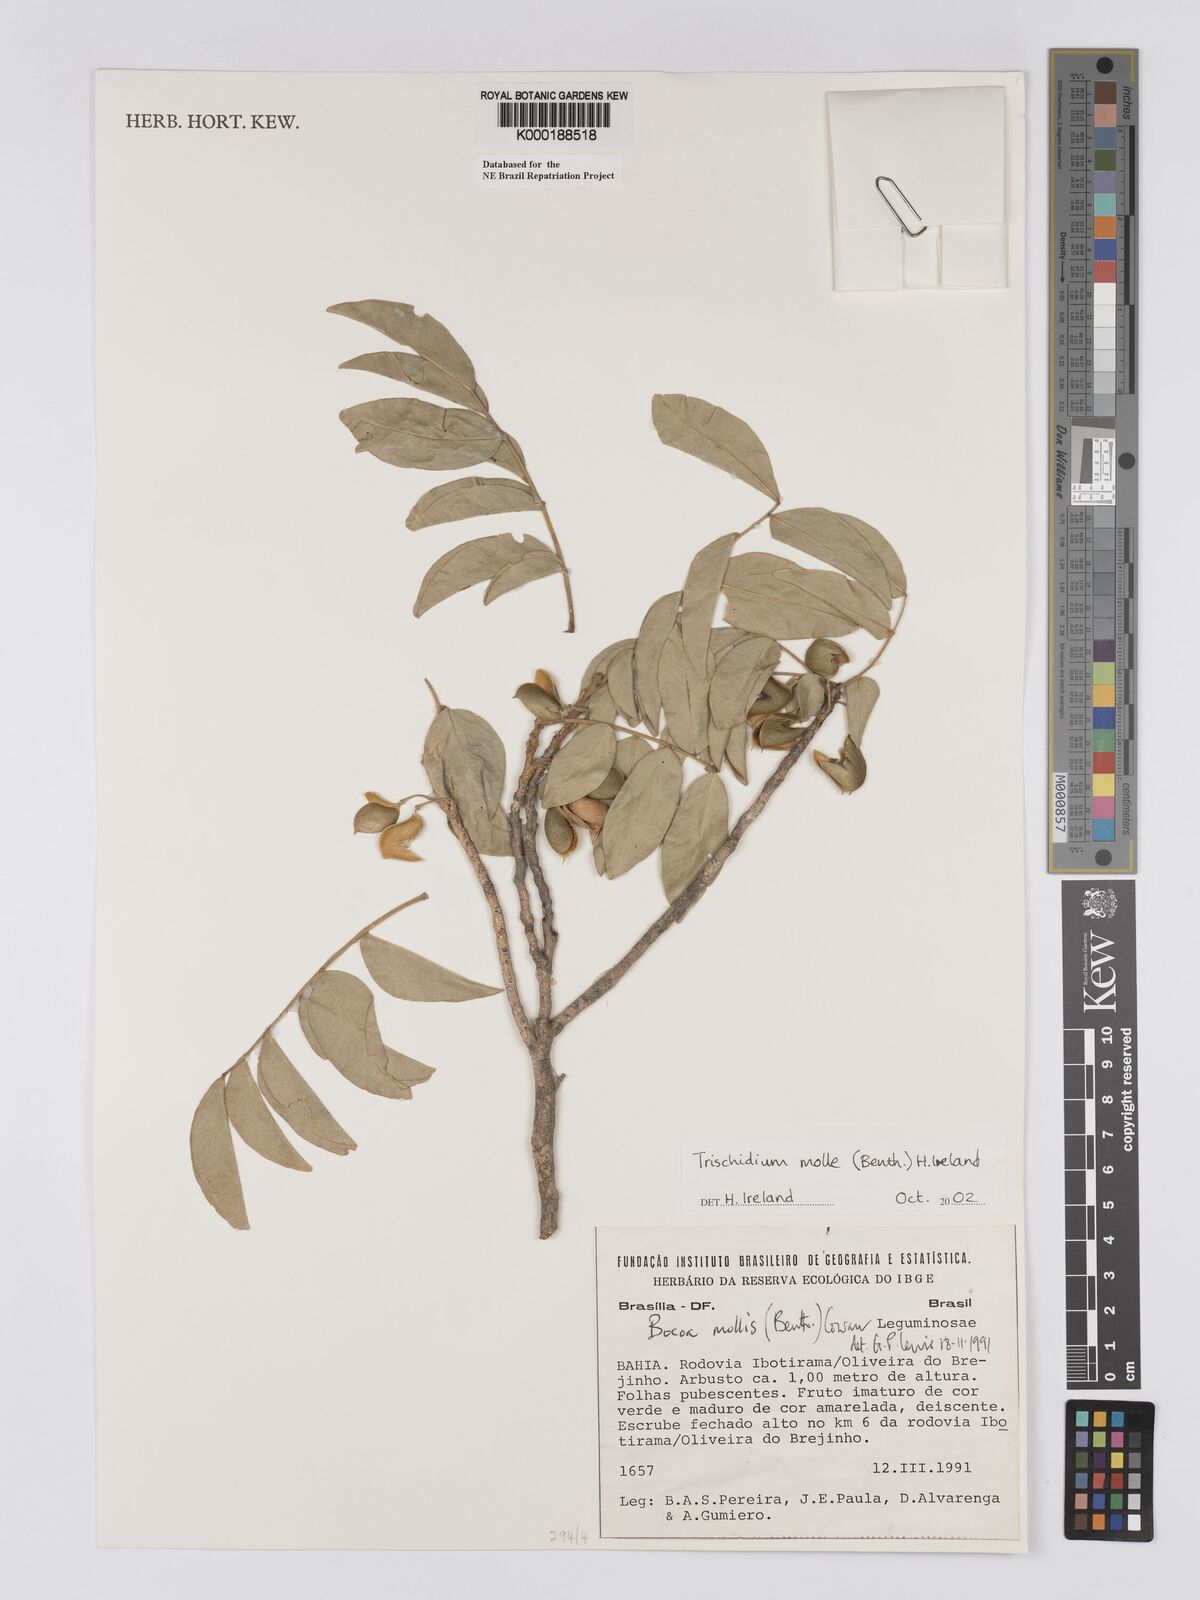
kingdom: Plantae
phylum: Tracheophyta
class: Magnoliopsida
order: Fabales
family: Fabaceae
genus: Trischidium
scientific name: Trischidium
